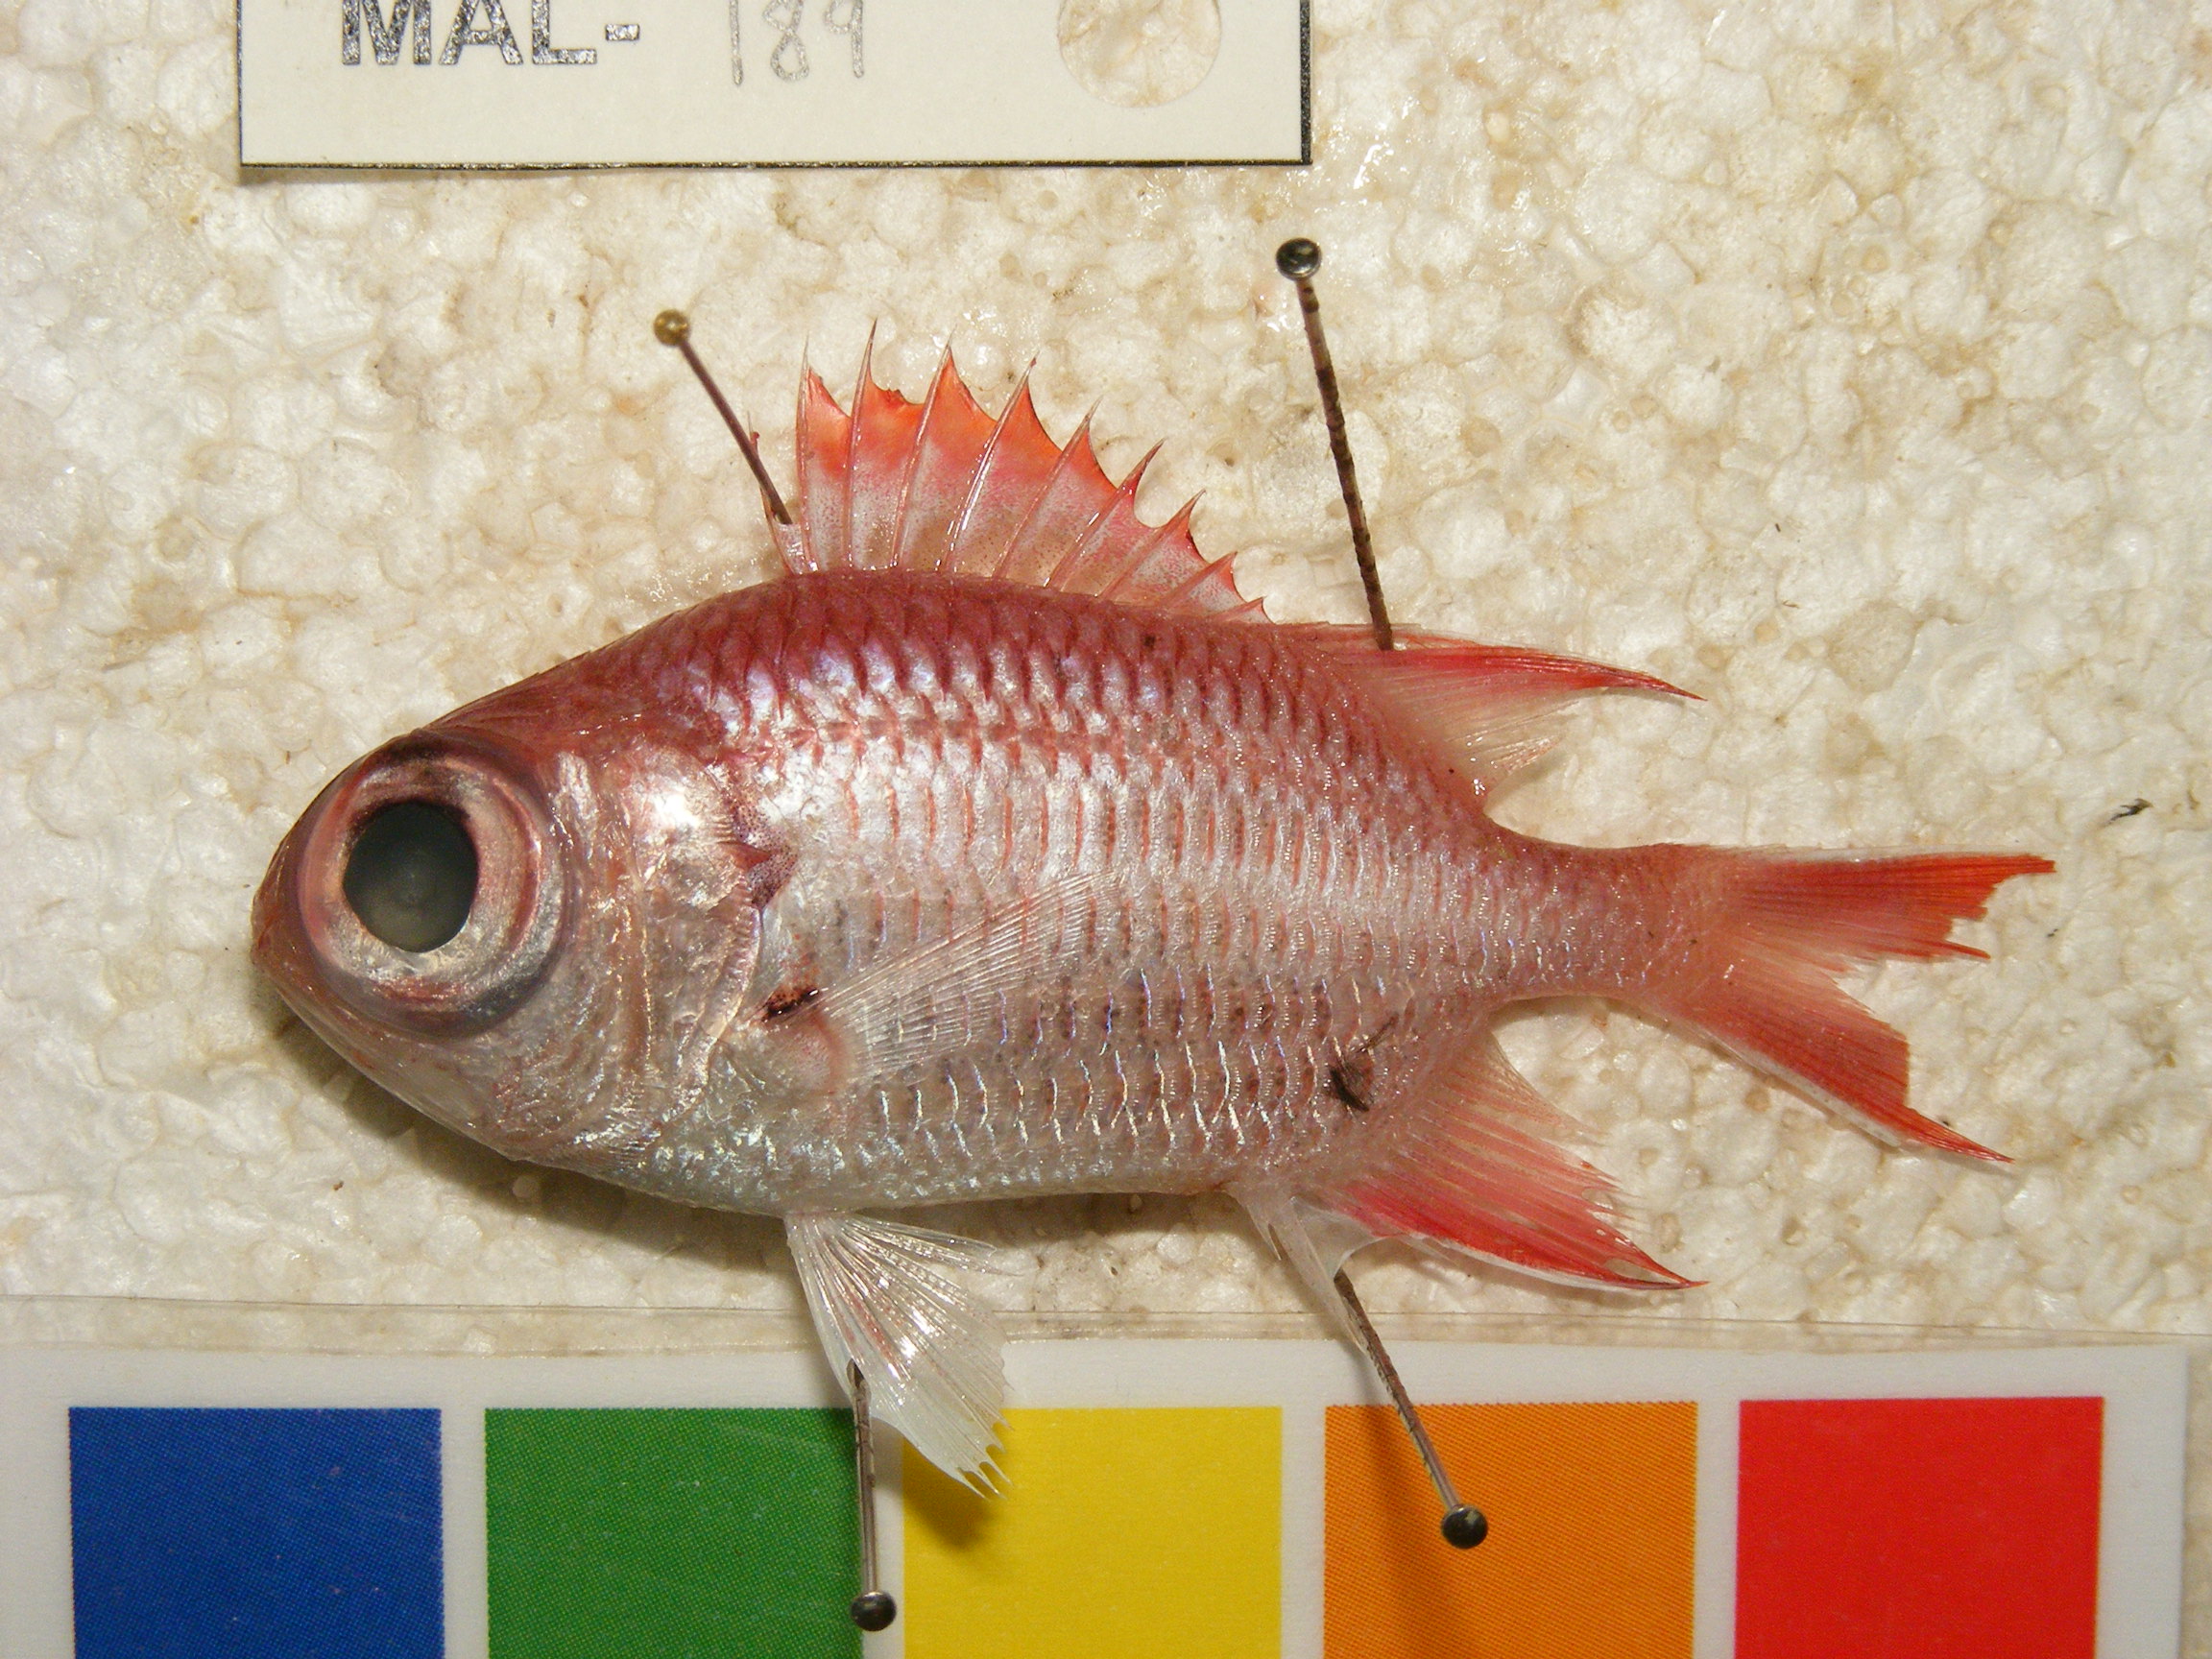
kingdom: Animalia
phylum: Chordata
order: Beryciformes
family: Holocentridae
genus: Myripristis
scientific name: Myripristis
